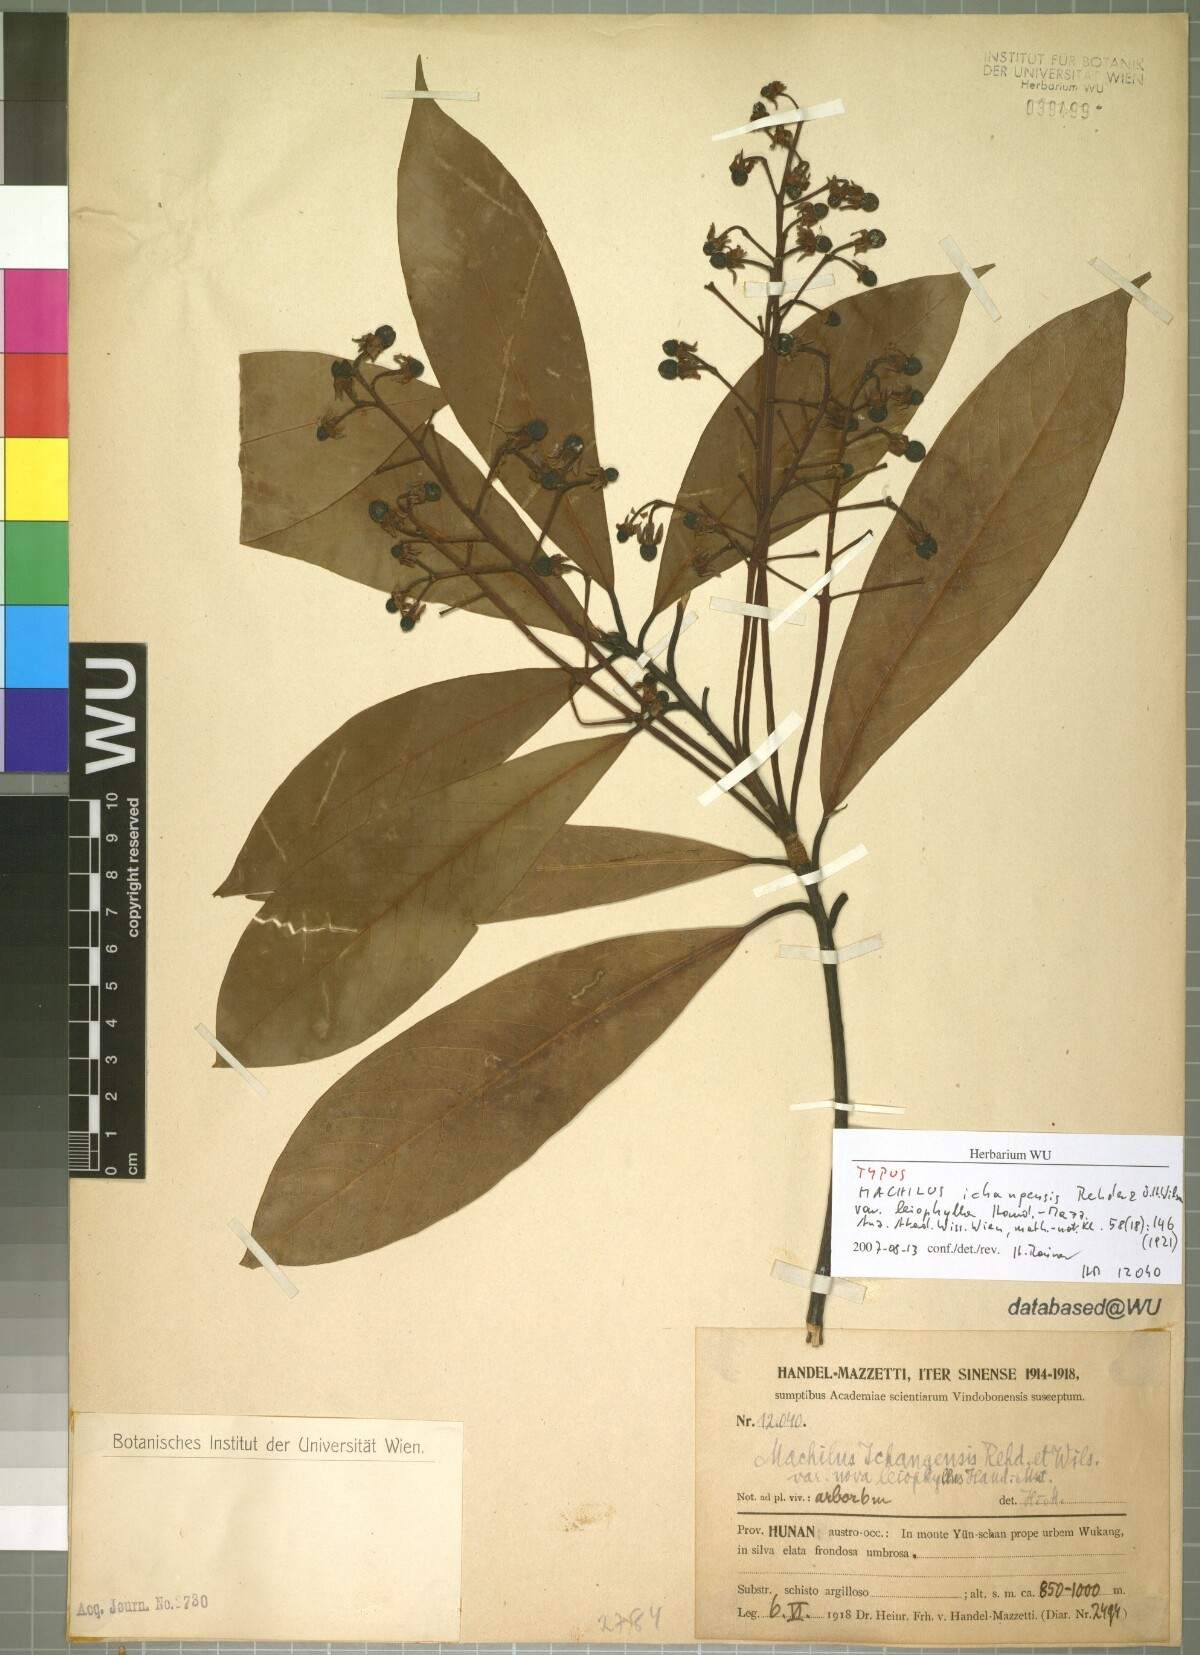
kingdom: Plantae
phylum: Tracheophyta
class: Magnoliopsida
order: Laurales
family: Lauraceae
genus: Machilus
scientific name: Machilus ichangensis
